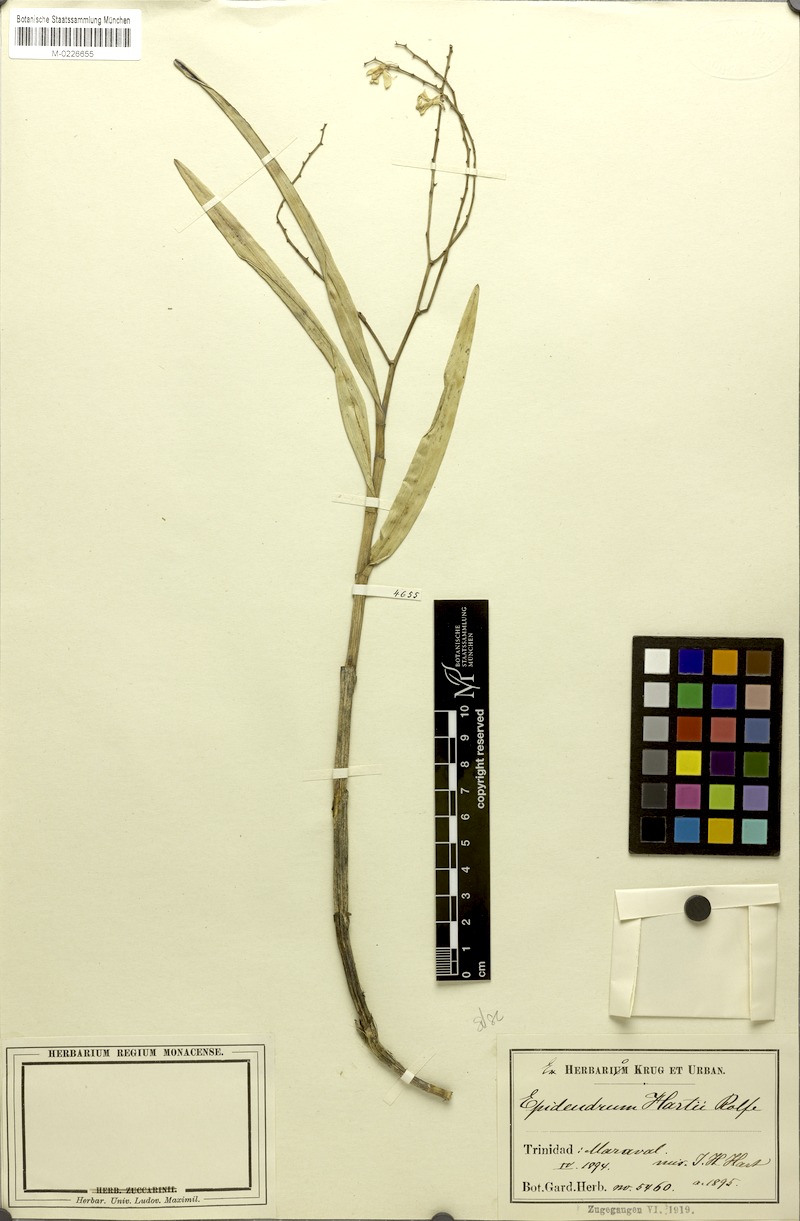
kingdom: Plantae
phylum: Tracheophyta
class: Liliopsida
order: Asparagales
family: Orchidaceae
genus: Epidendrum
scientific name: Epidendrum subpurum
